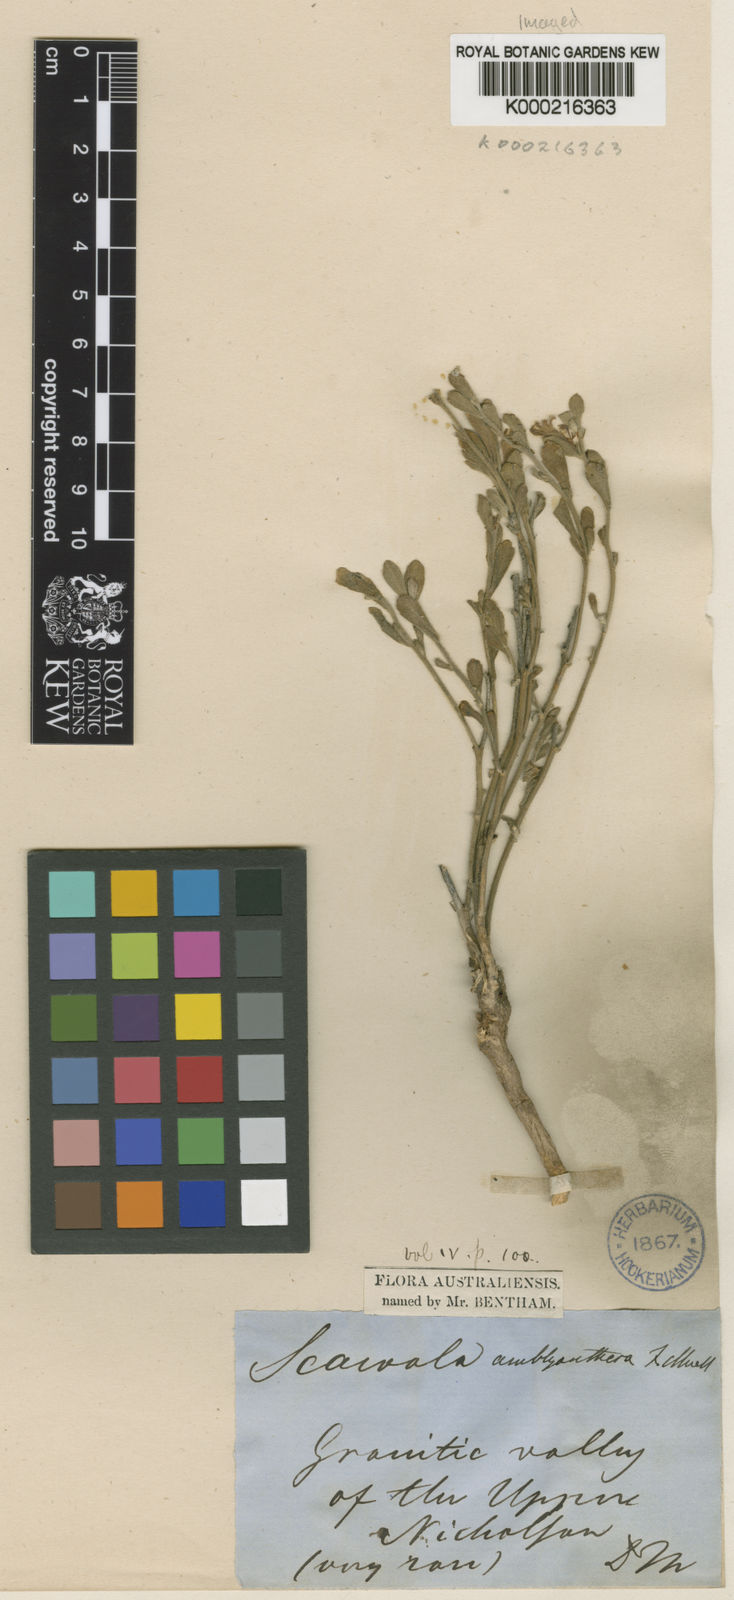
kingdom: Plantae
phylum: Tracheophyta
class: Magnoliopsida
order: Asterales
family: Goodeniaceae
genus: Scaevola
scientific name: Scaevola amblyanthera
